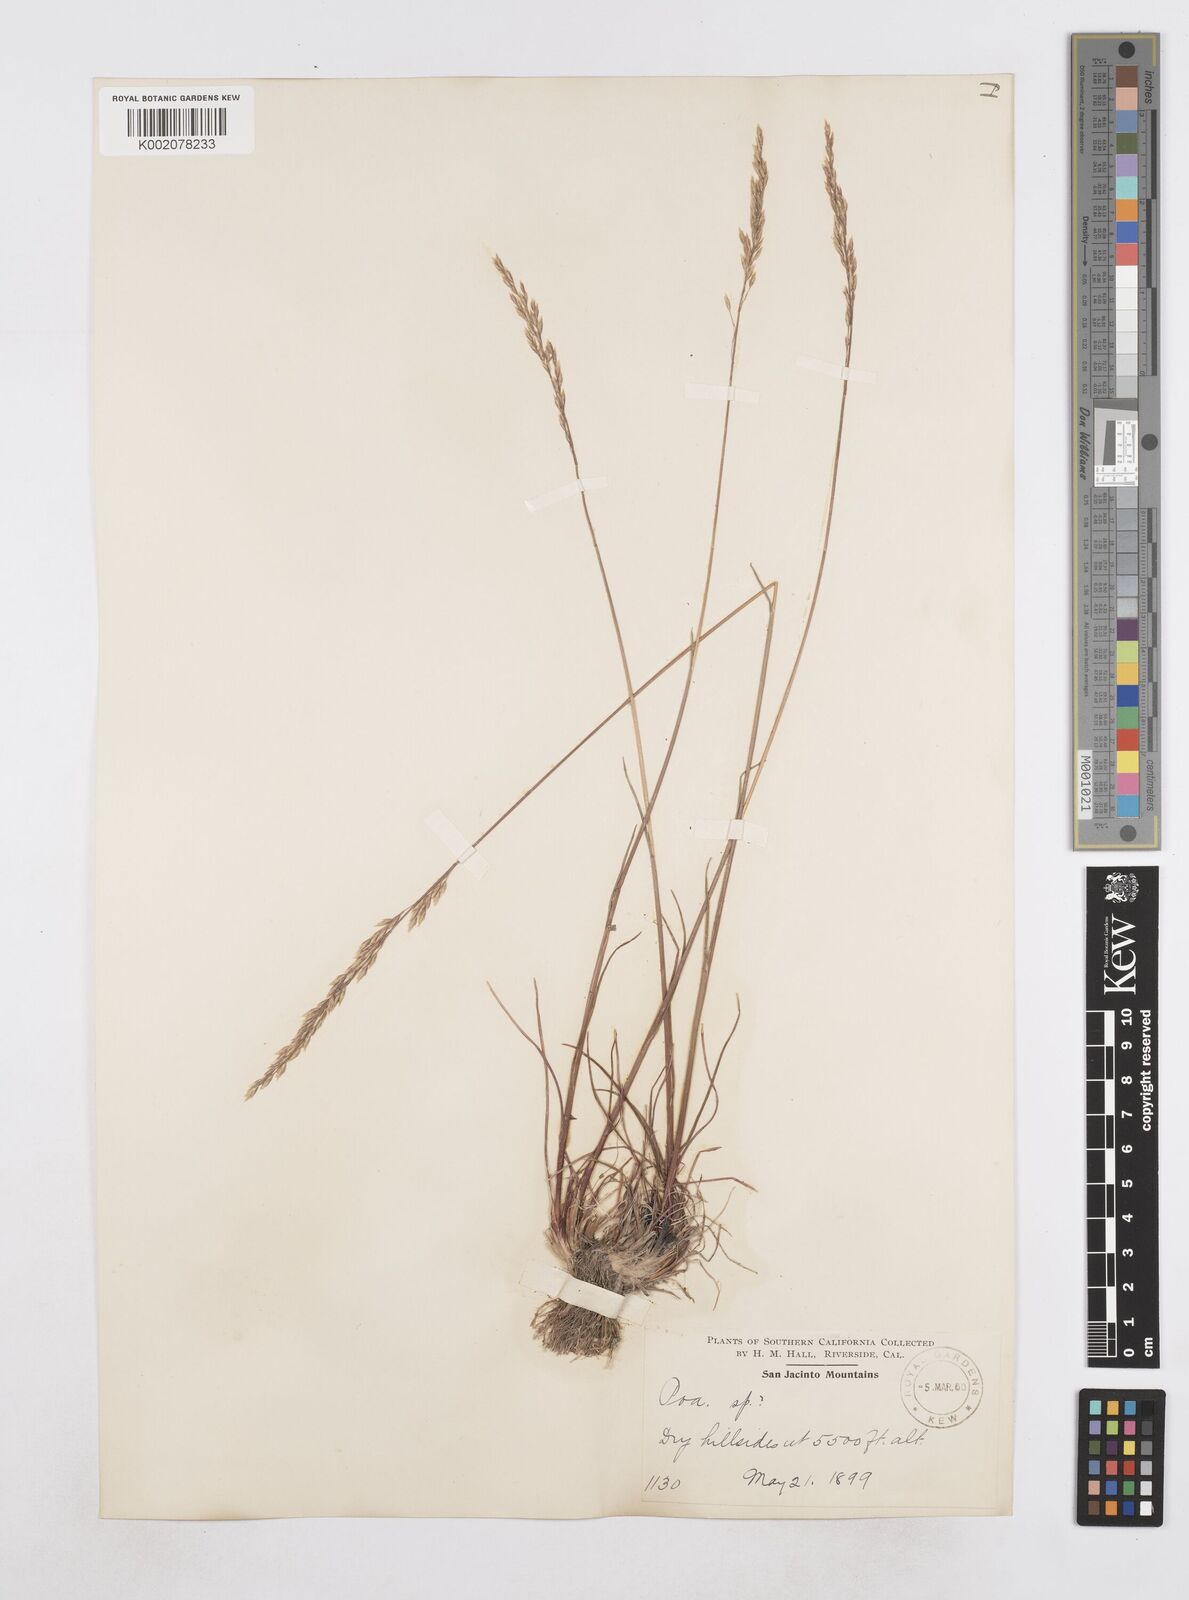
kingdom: Plantae
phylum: Tracheophyta
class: Liliopsida
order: Poales
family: Poaceae
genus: Poa
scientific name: Poa
